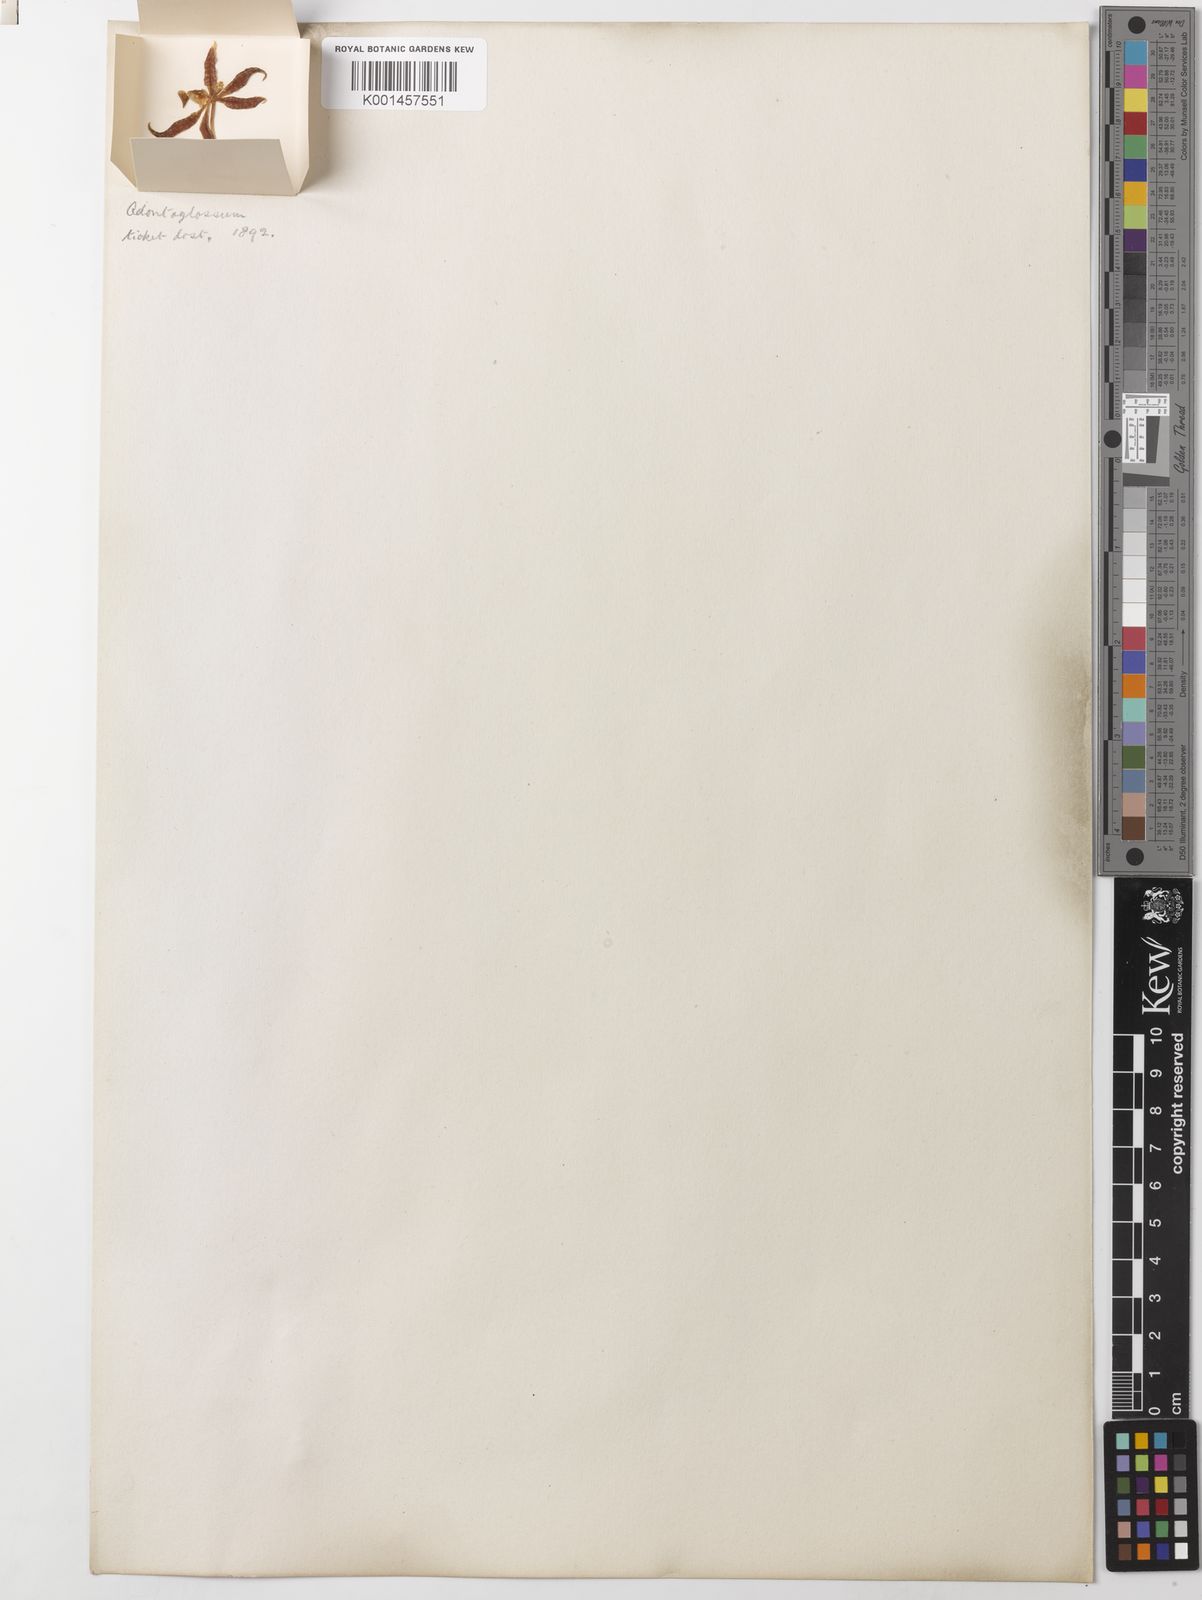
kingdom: Plantae
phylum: Tracheophyta
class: Liliopsida
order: Asparagales
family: Orchidaceae
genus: Oncidium
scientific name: Oncidium
